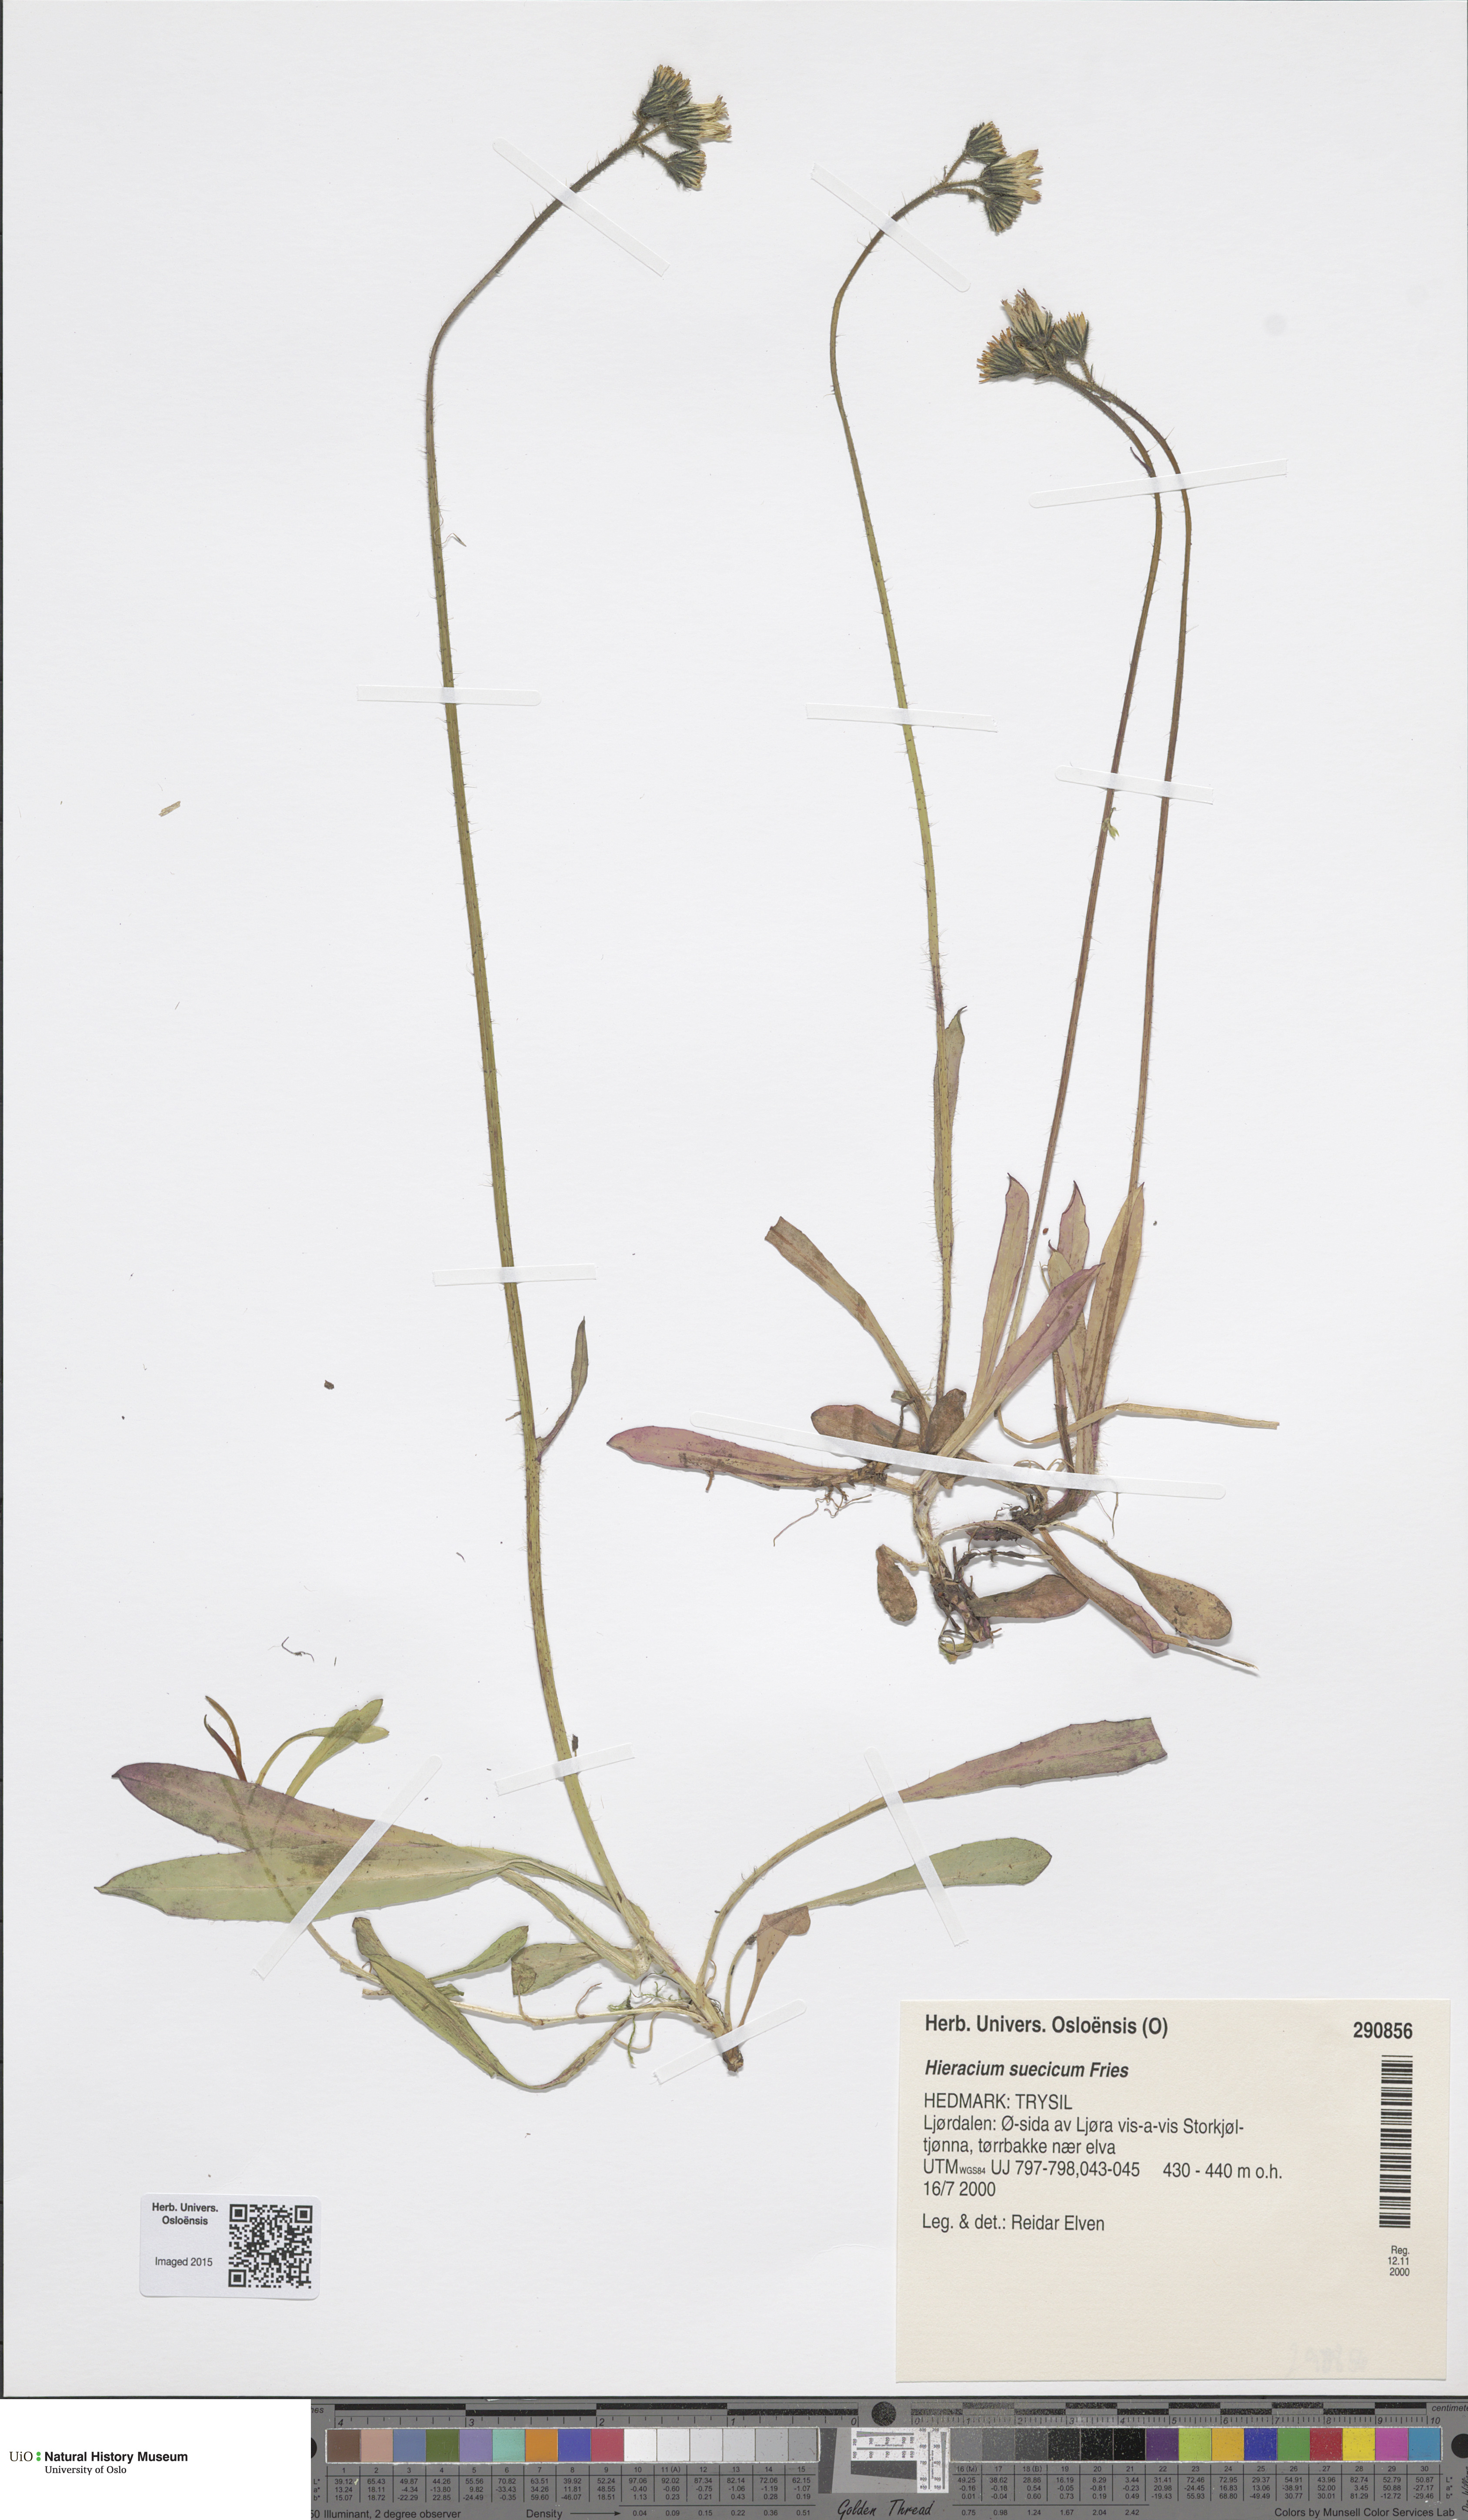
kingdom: Plantae
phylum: Tracheophyta
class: Magnoliopsida
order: Asterales
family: Asteraceae
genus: Pilosella
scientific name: Pilosella dubia
